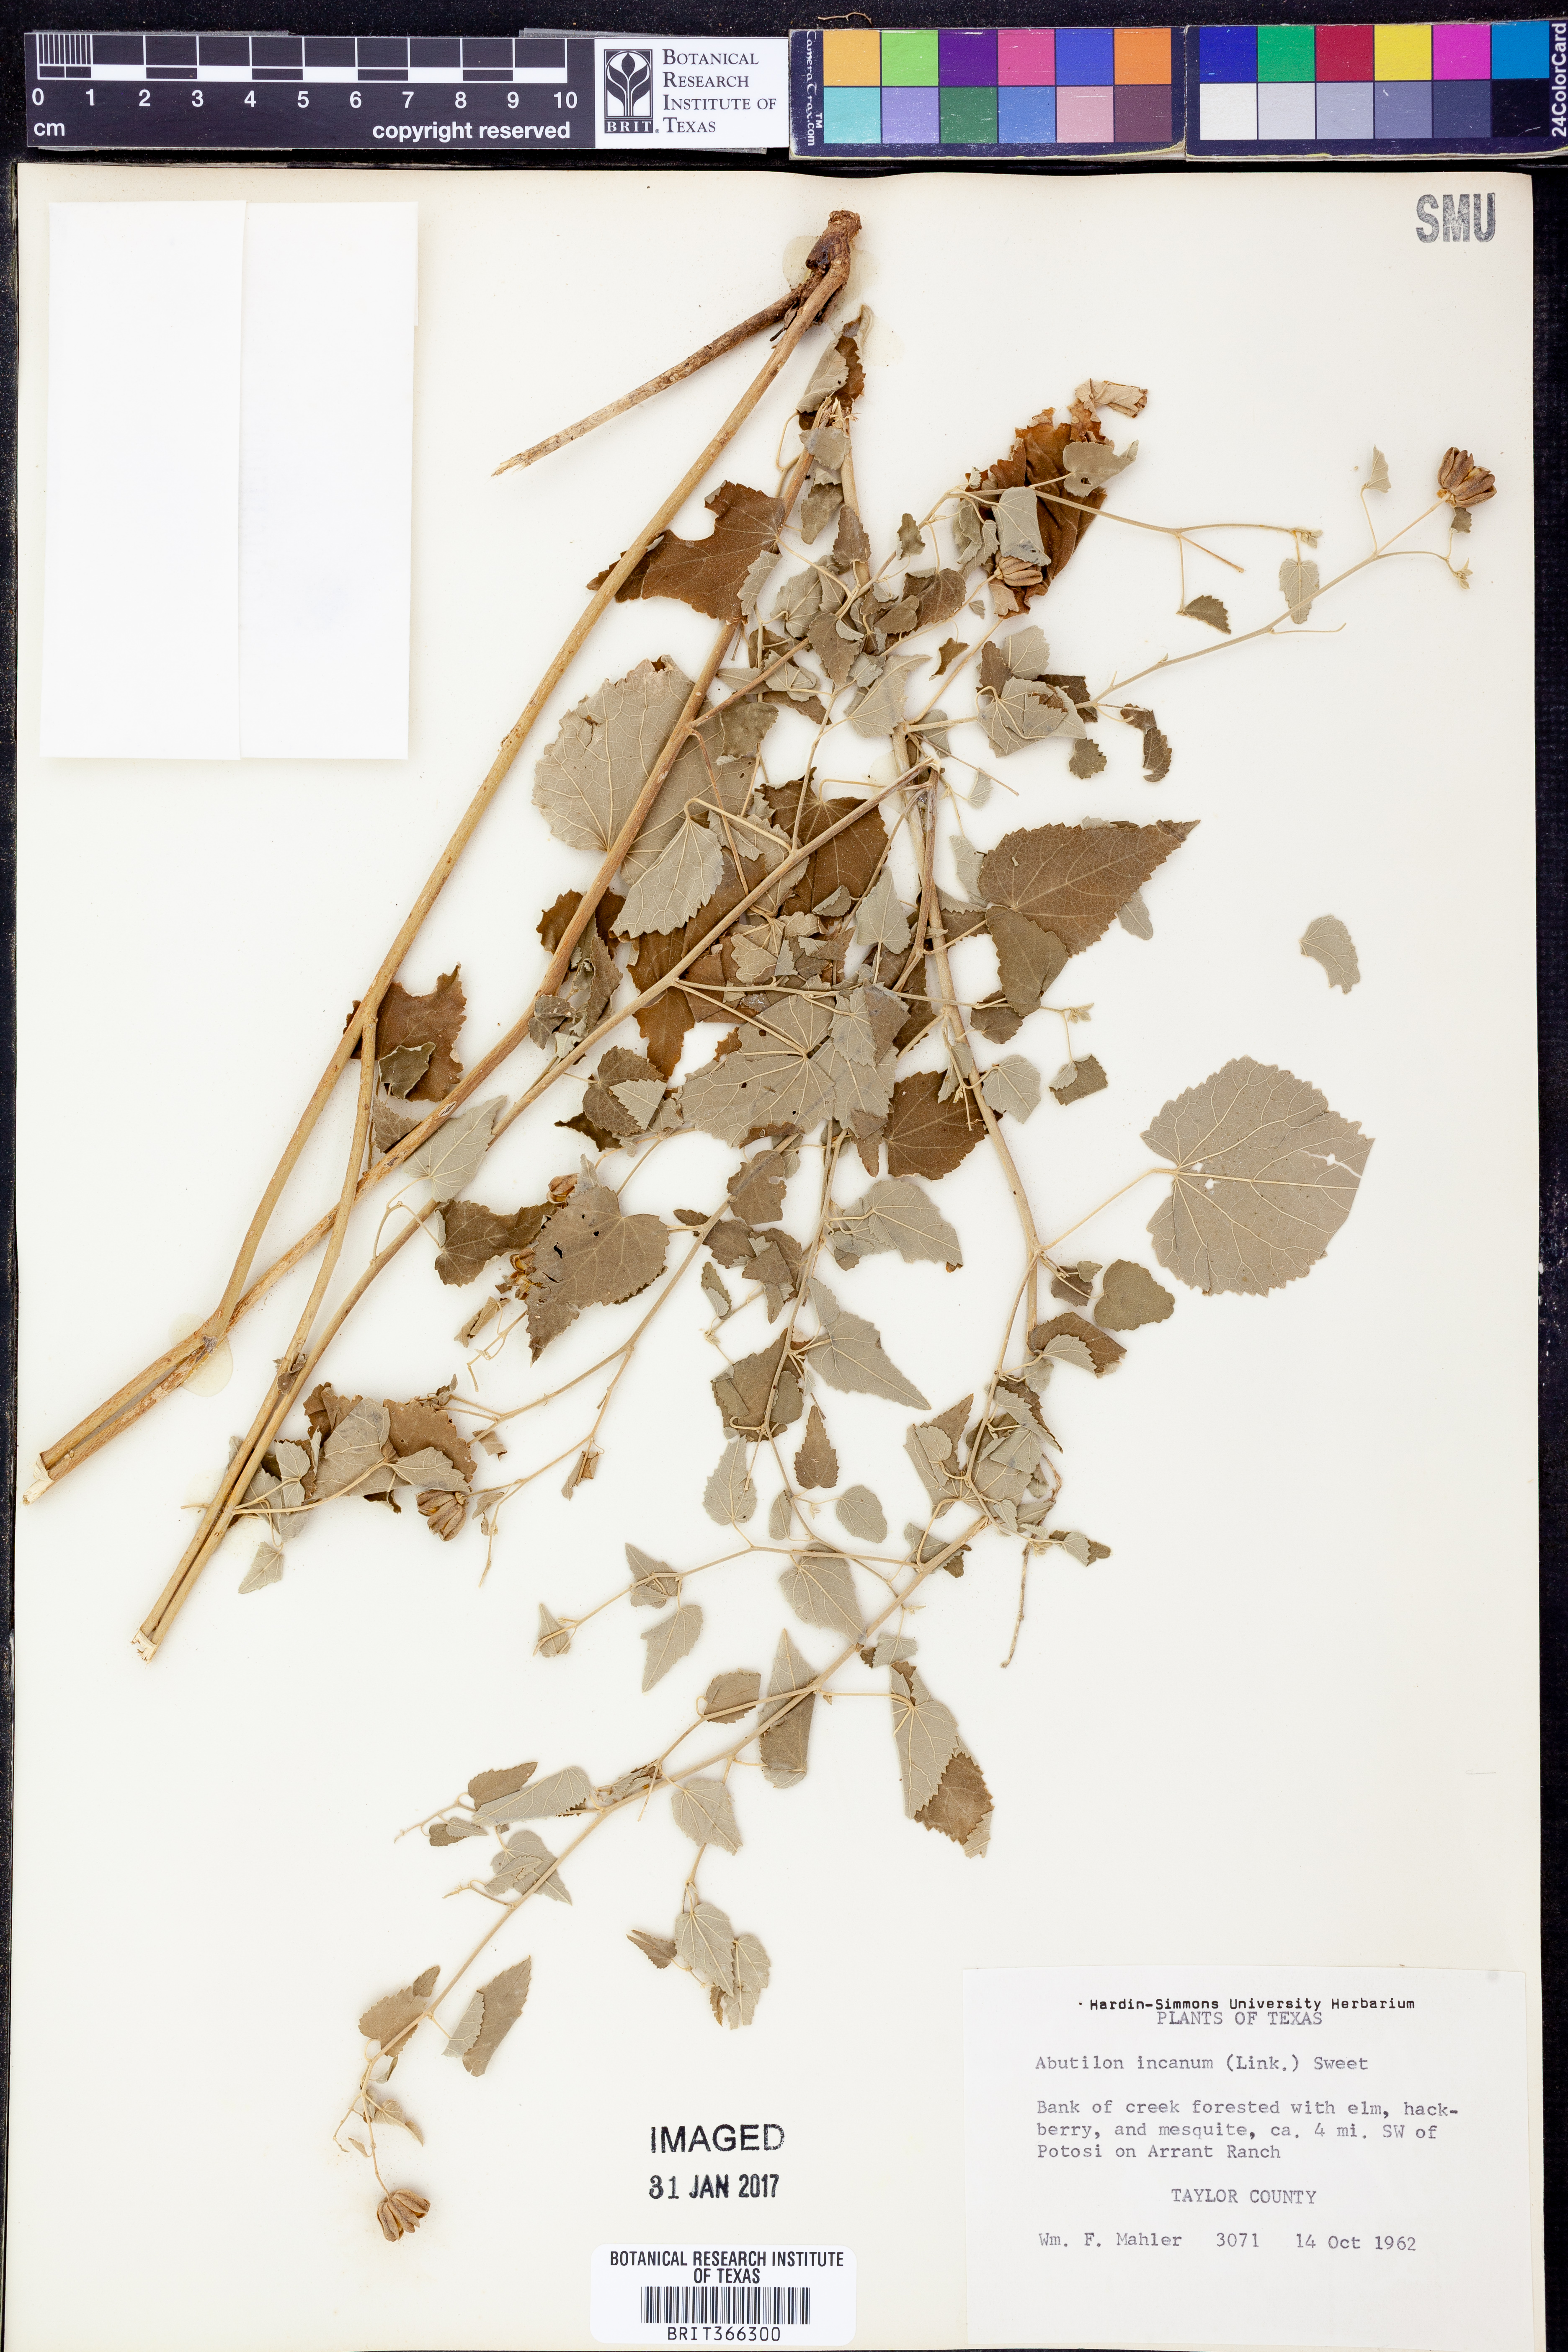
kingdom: Plantae
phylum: Tracheophyta
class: Magnoliopsida
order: Malvales
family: Malvaceae
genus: Abutilon
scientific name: Abutilon incanum
